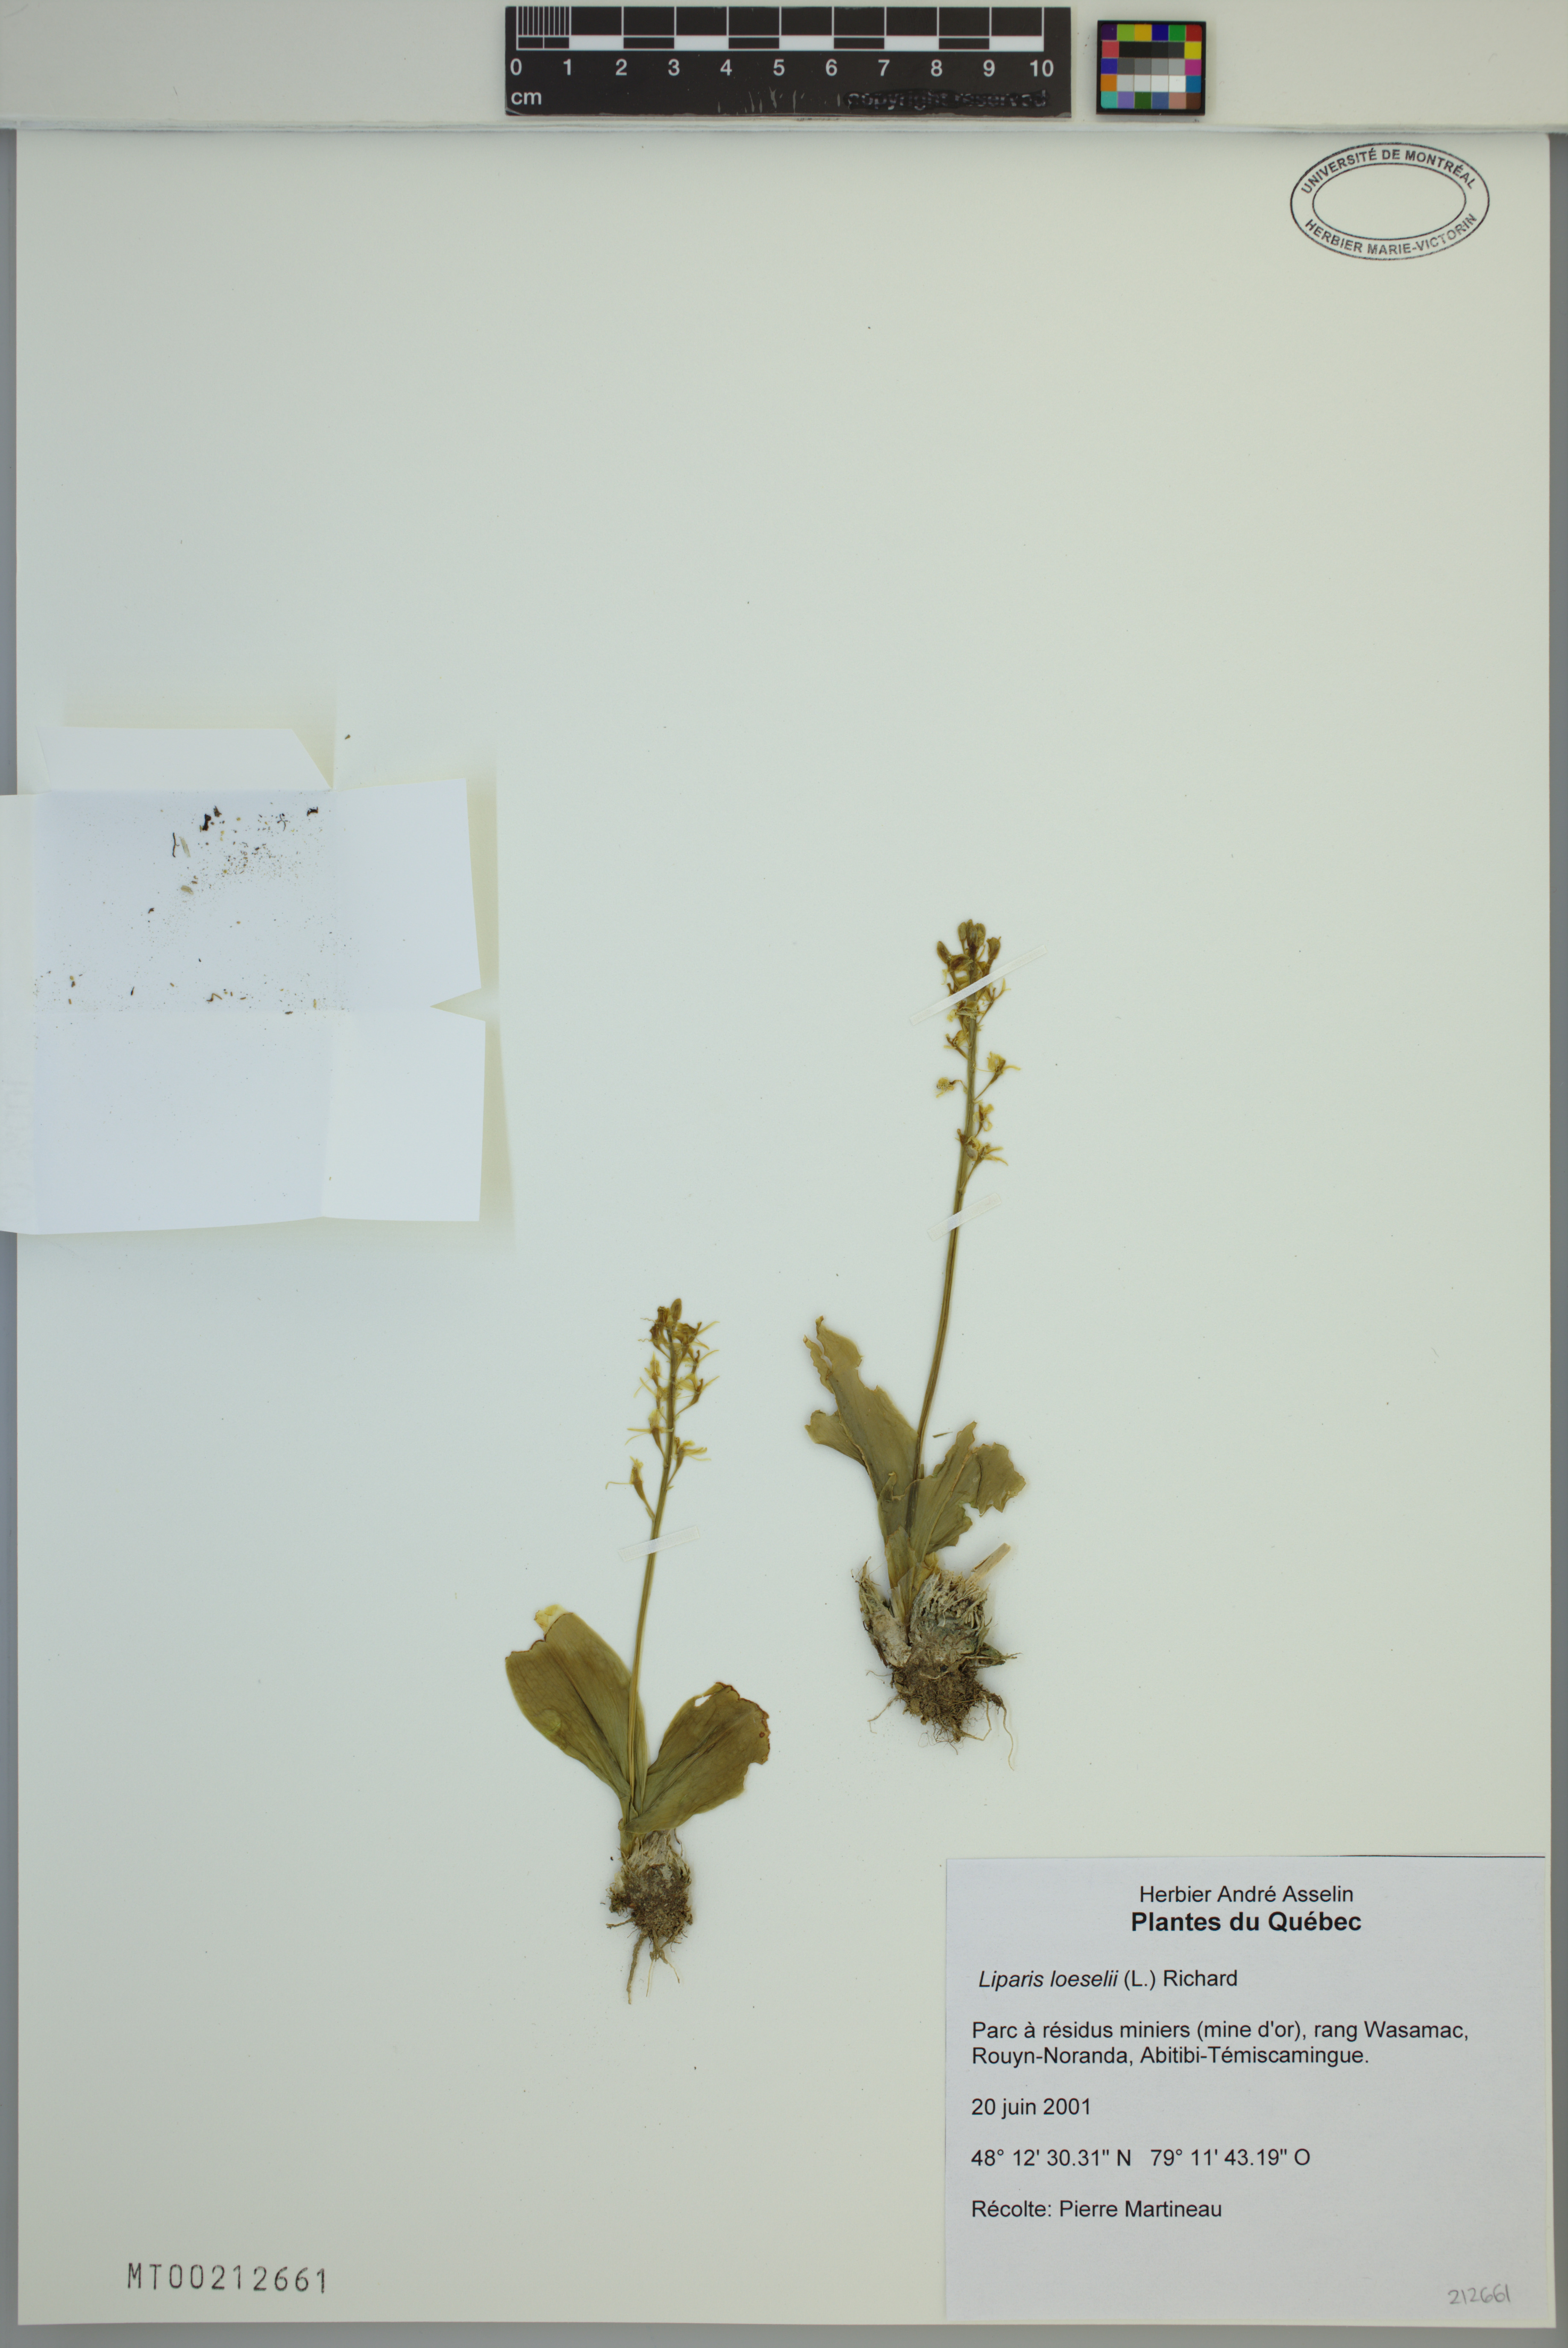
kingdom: Animalia
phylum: Arthropoda
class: Insecta
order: Coleoptera
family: Curculionidae
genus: Liparis
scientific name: Liparis loeselii
